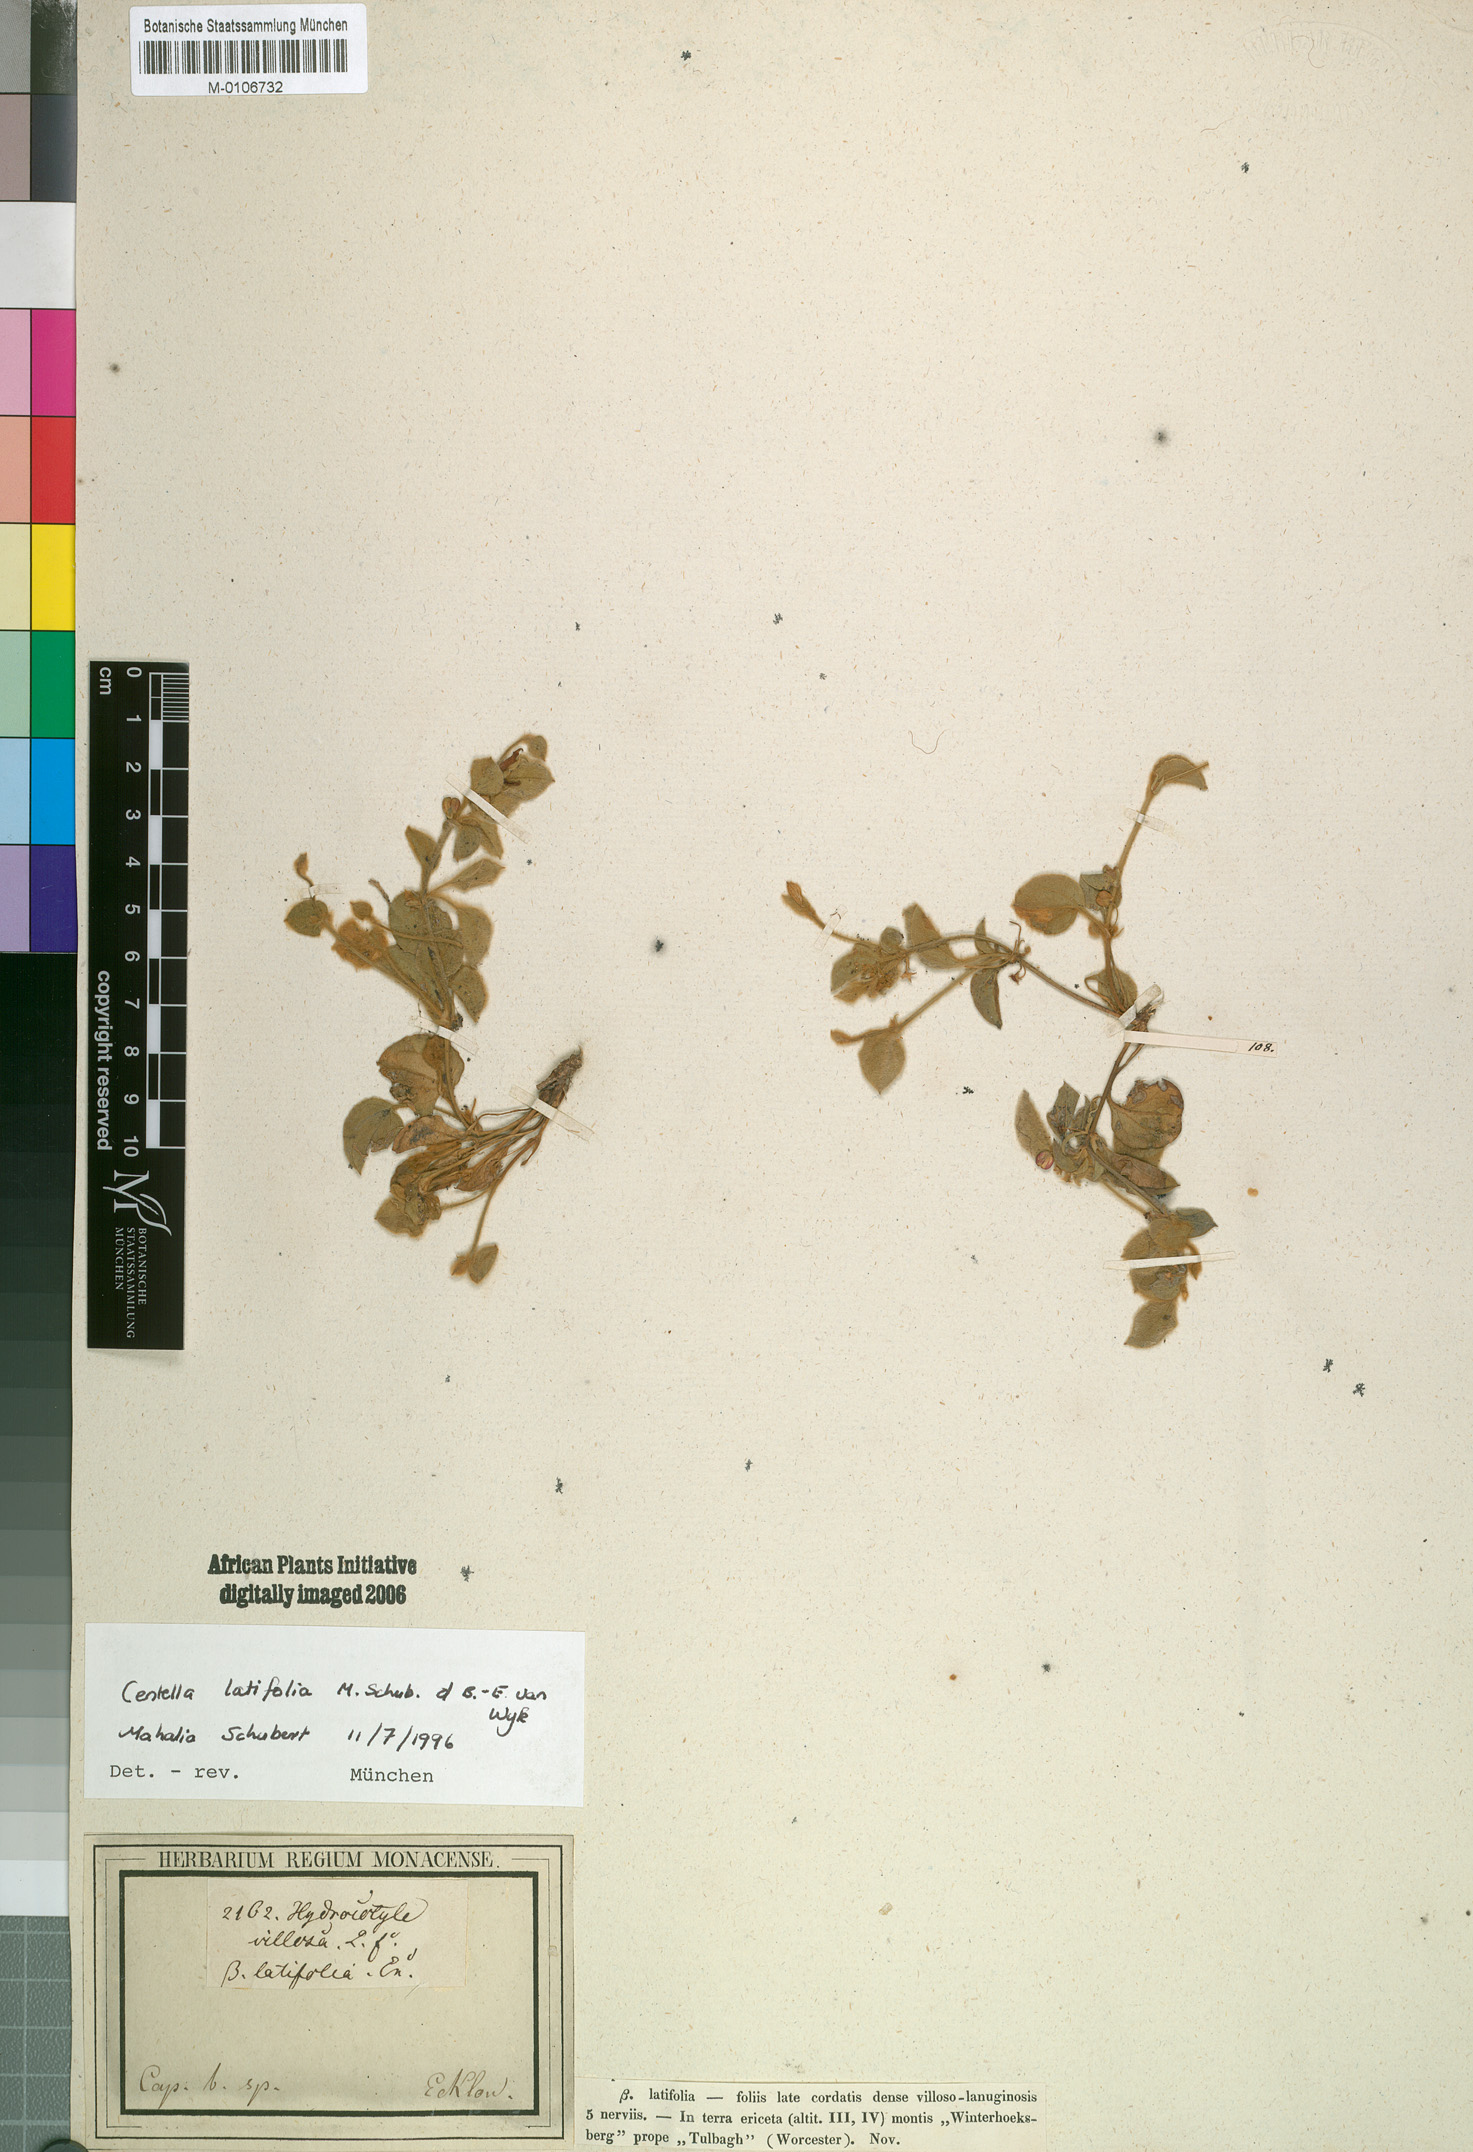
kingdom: Plantae
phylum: Tracheophyta
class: Magnoliopsida
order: Apiales
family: Apiaceae
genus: Centella
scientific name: Centella
